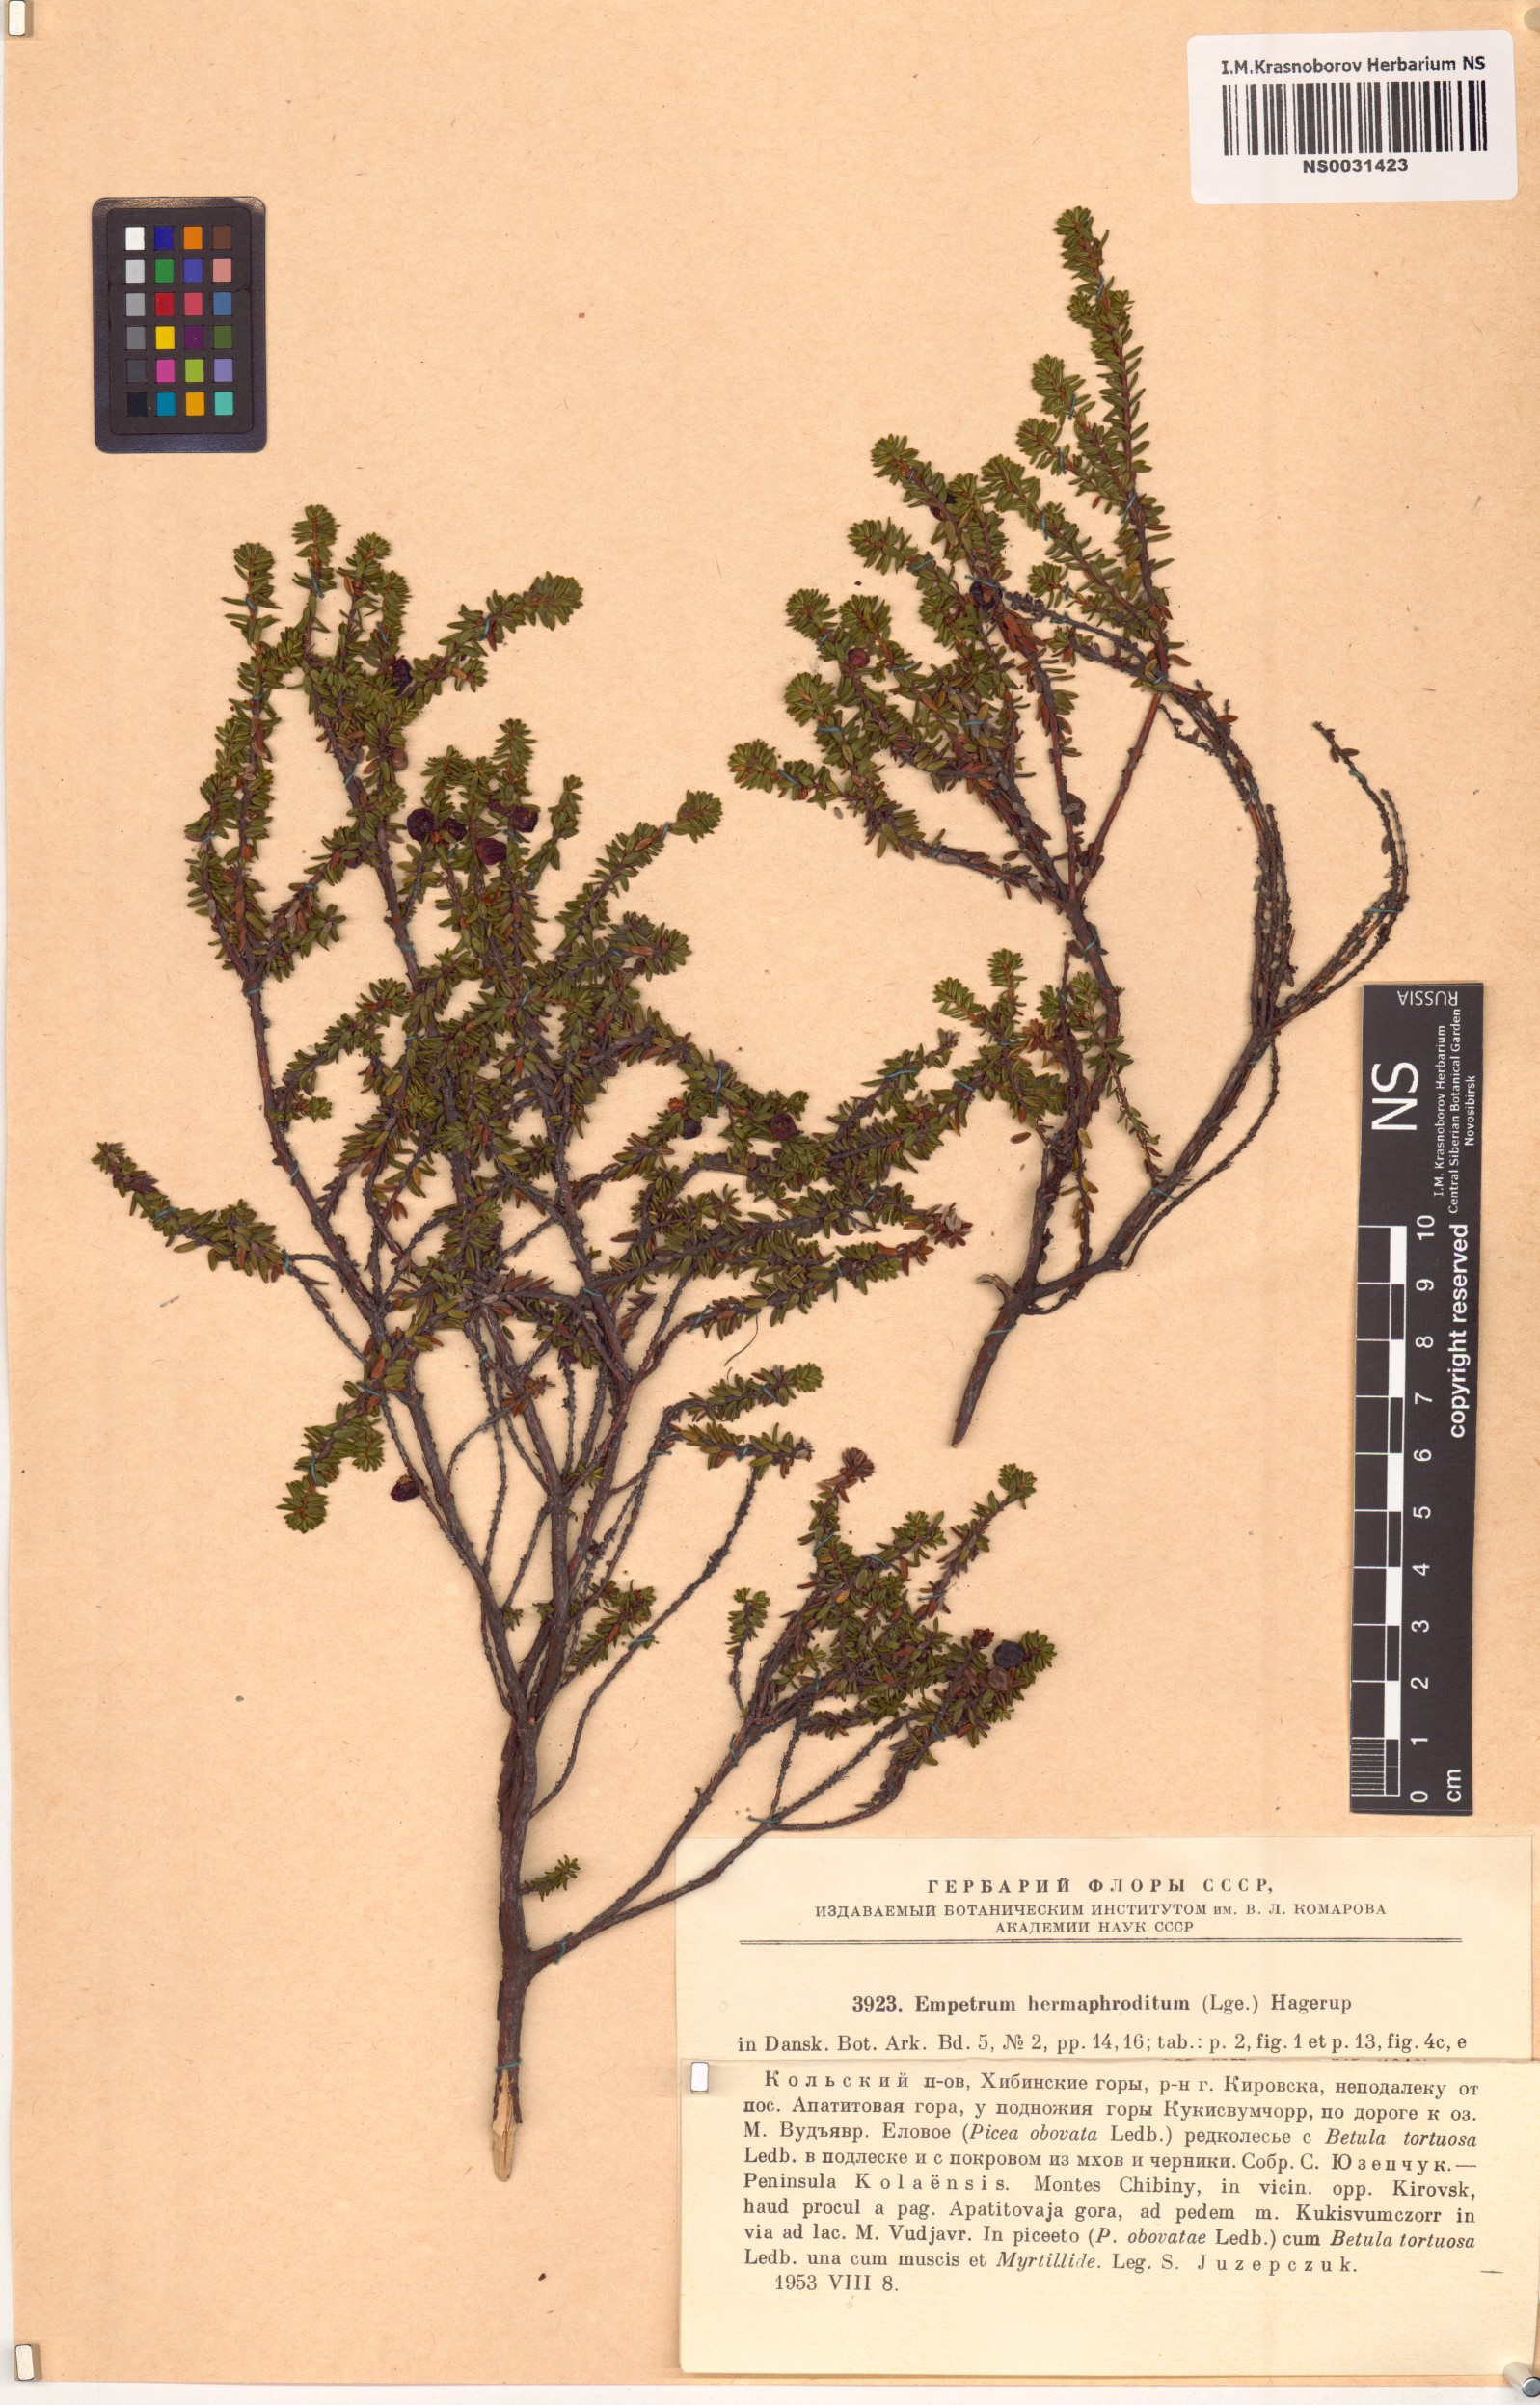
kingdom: Plantae
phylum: Tracheophyta
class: Magnoliopsida
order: Ericales
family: Ericaceae
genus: Empetrum
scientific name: Empetrum hermaphroditum
